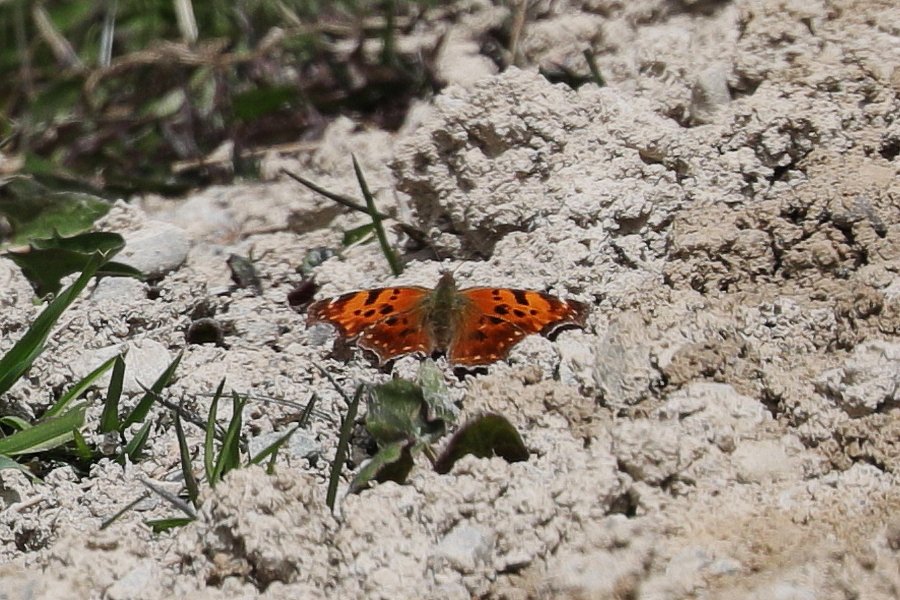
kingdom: Animalia
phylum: Arthropoda
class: Insecta
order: Lepidoptera
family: Nymphalidae
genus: Polygonia
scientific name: Polygonia comma
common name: Eastern Comma
